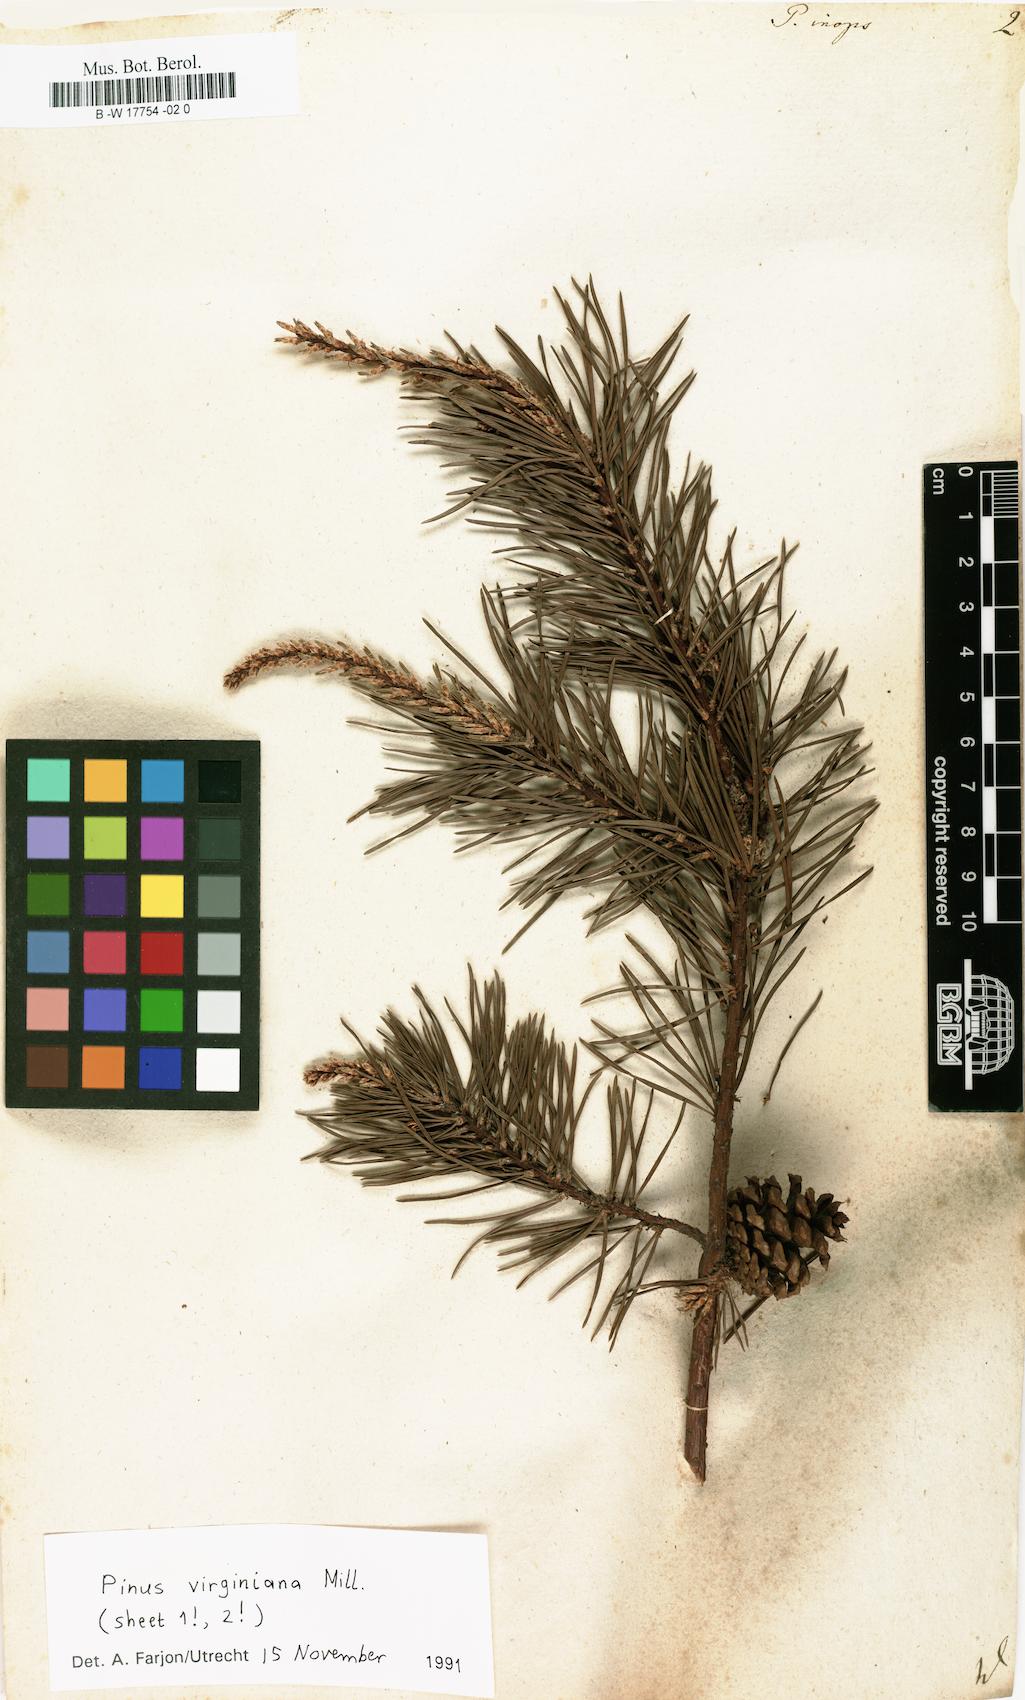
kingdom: Plantae
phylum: Tracheophyta
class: Pinopsida
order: Pinales
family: Pinaceae
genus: Pinus
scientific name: Pinus
